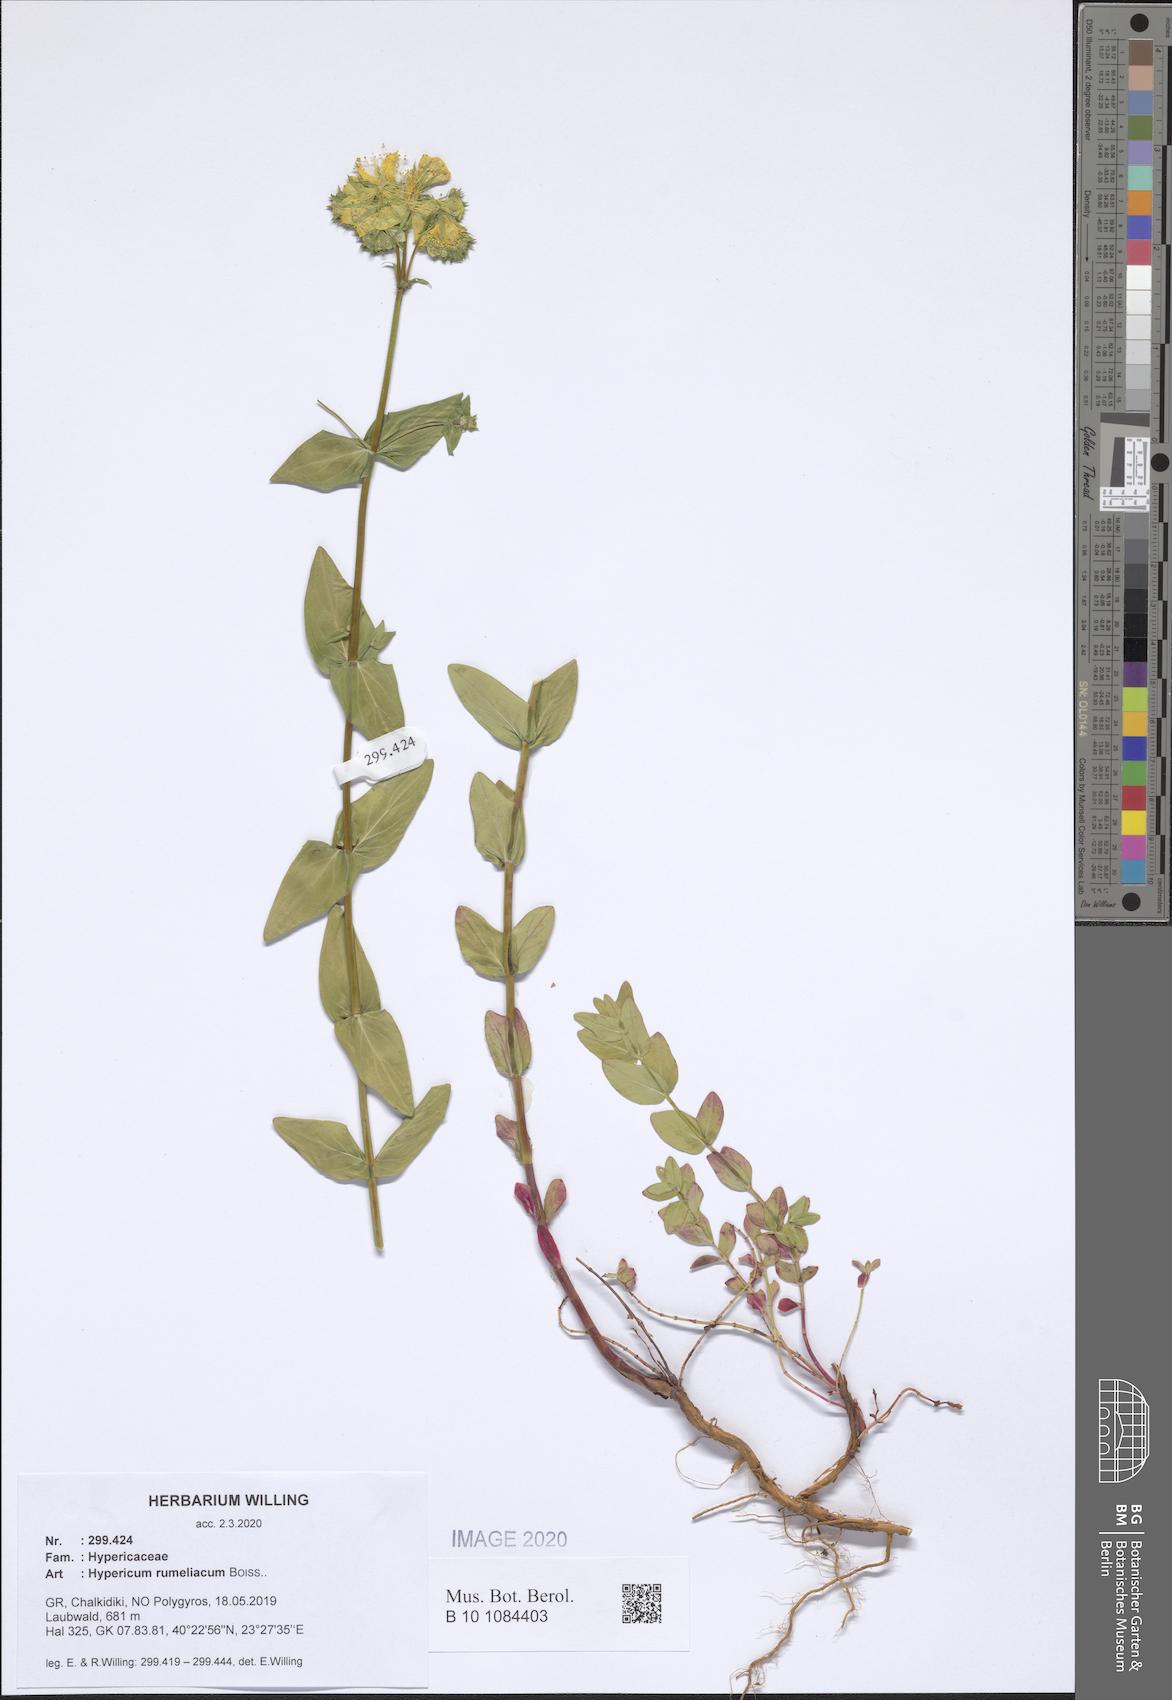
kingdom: Plantae
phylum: Tracheophyta
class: Magnoliopsida
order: Malpighiales
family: Hypericaceae
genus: Hypericum
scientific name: Hypericum rumeliacum
